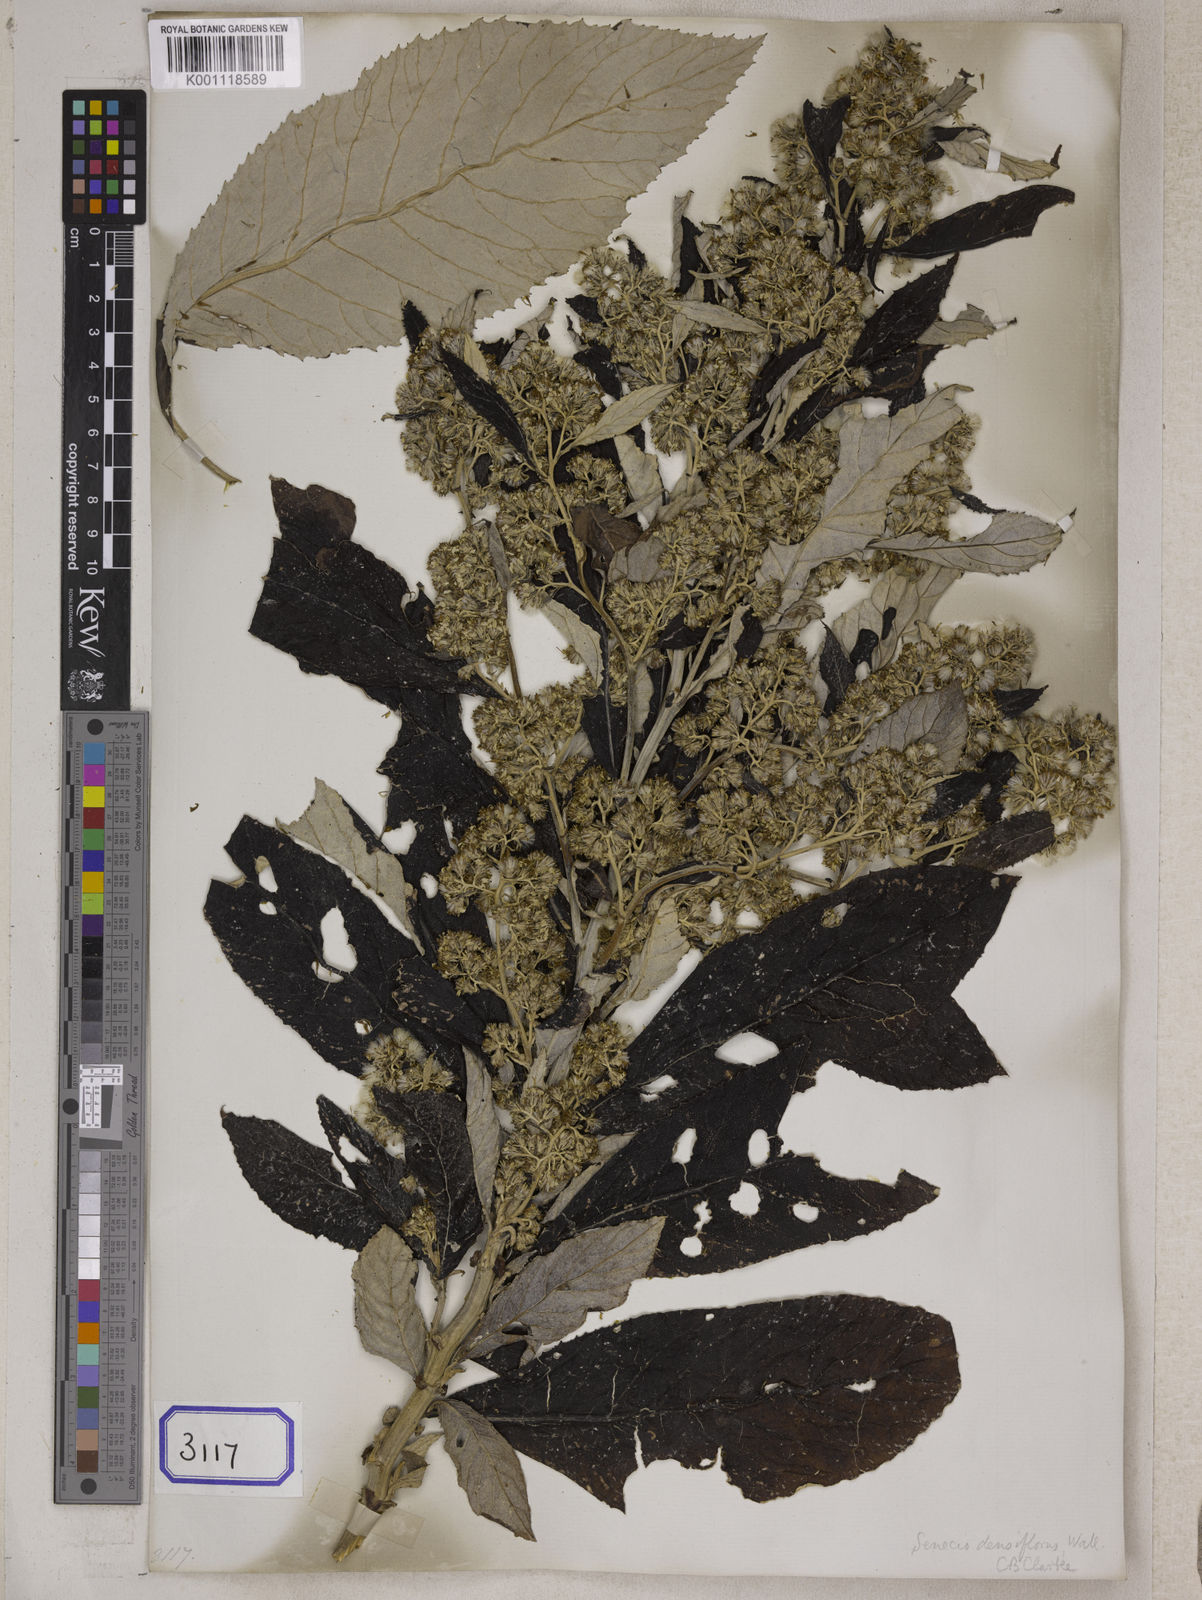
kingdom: Plantae
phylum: Tracheophyta
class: Magnoliopsida
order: Asterales
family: Asteraceae
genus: Synotis
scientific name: Synotis cappa
